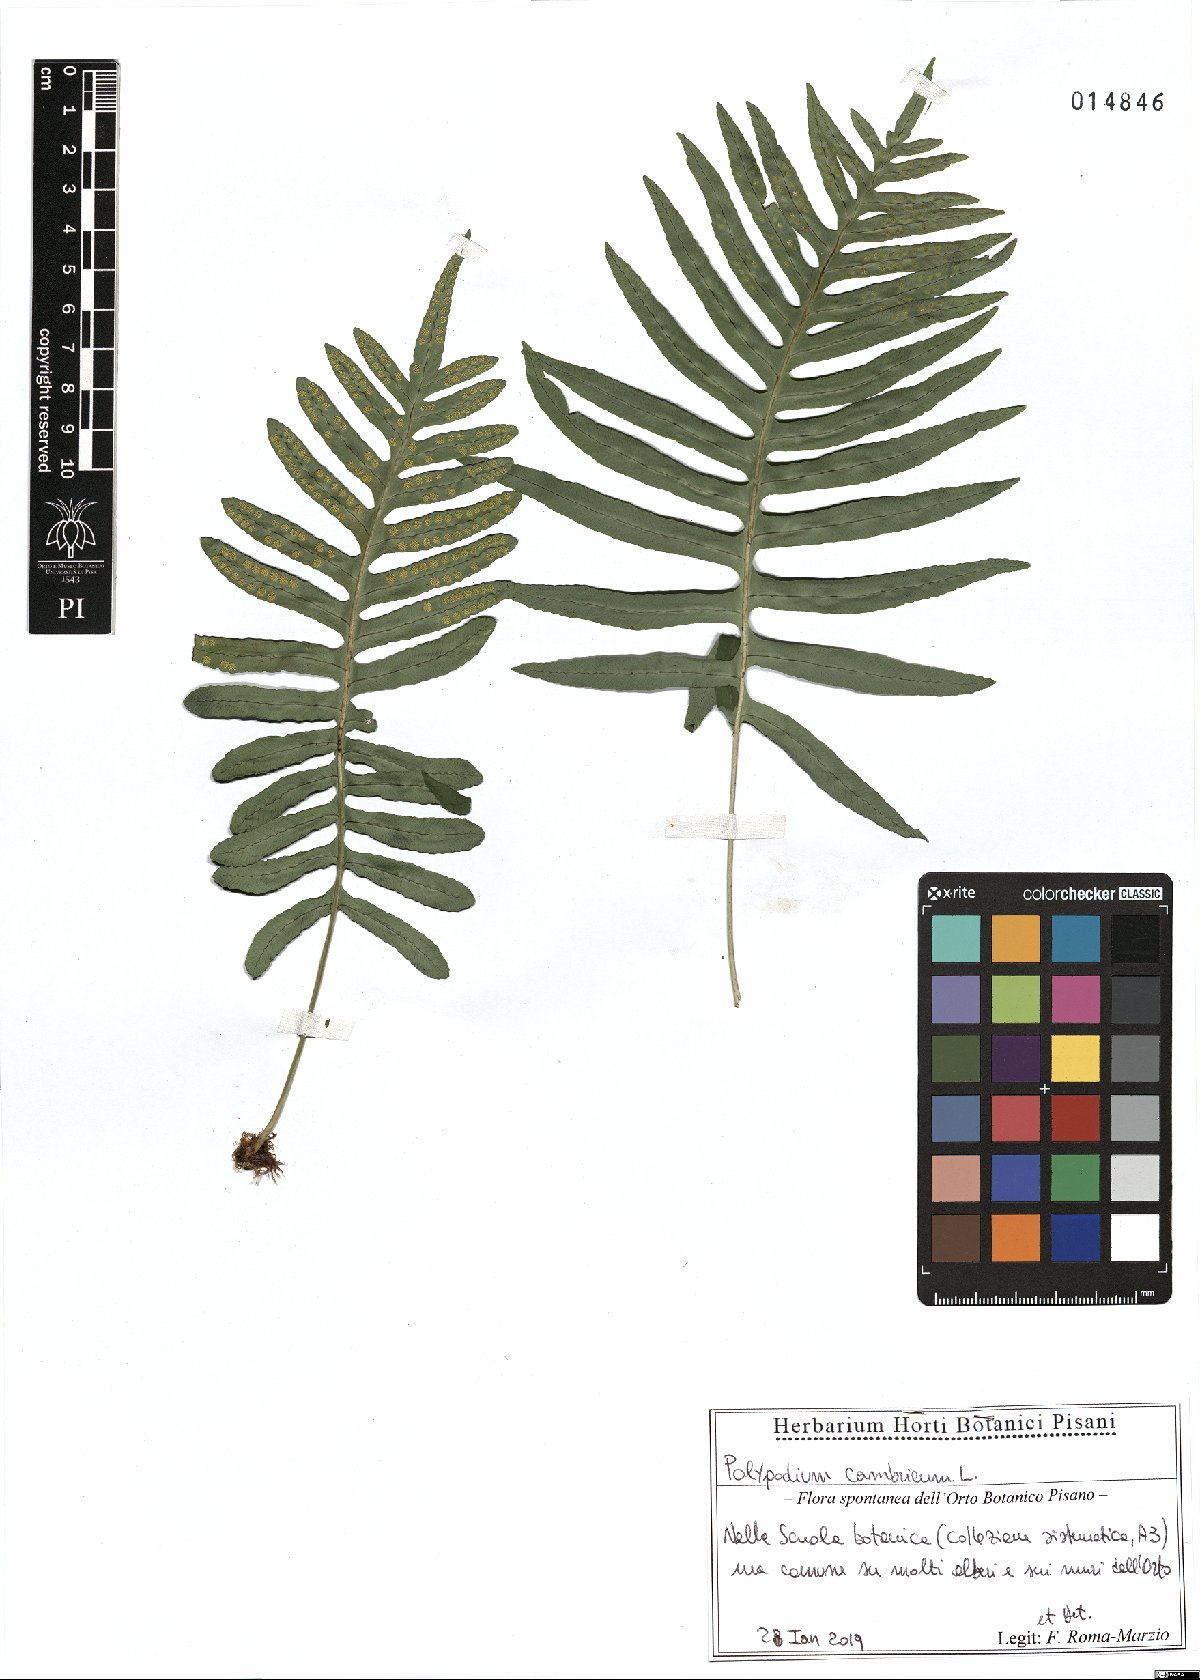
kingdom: Plantae
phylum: Tracheophyta
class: Polypodiopsida
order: Polypodiales
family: Polypodiaceae
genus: Polypodium
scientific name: Polypodium cambricum
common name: Southern polypody
